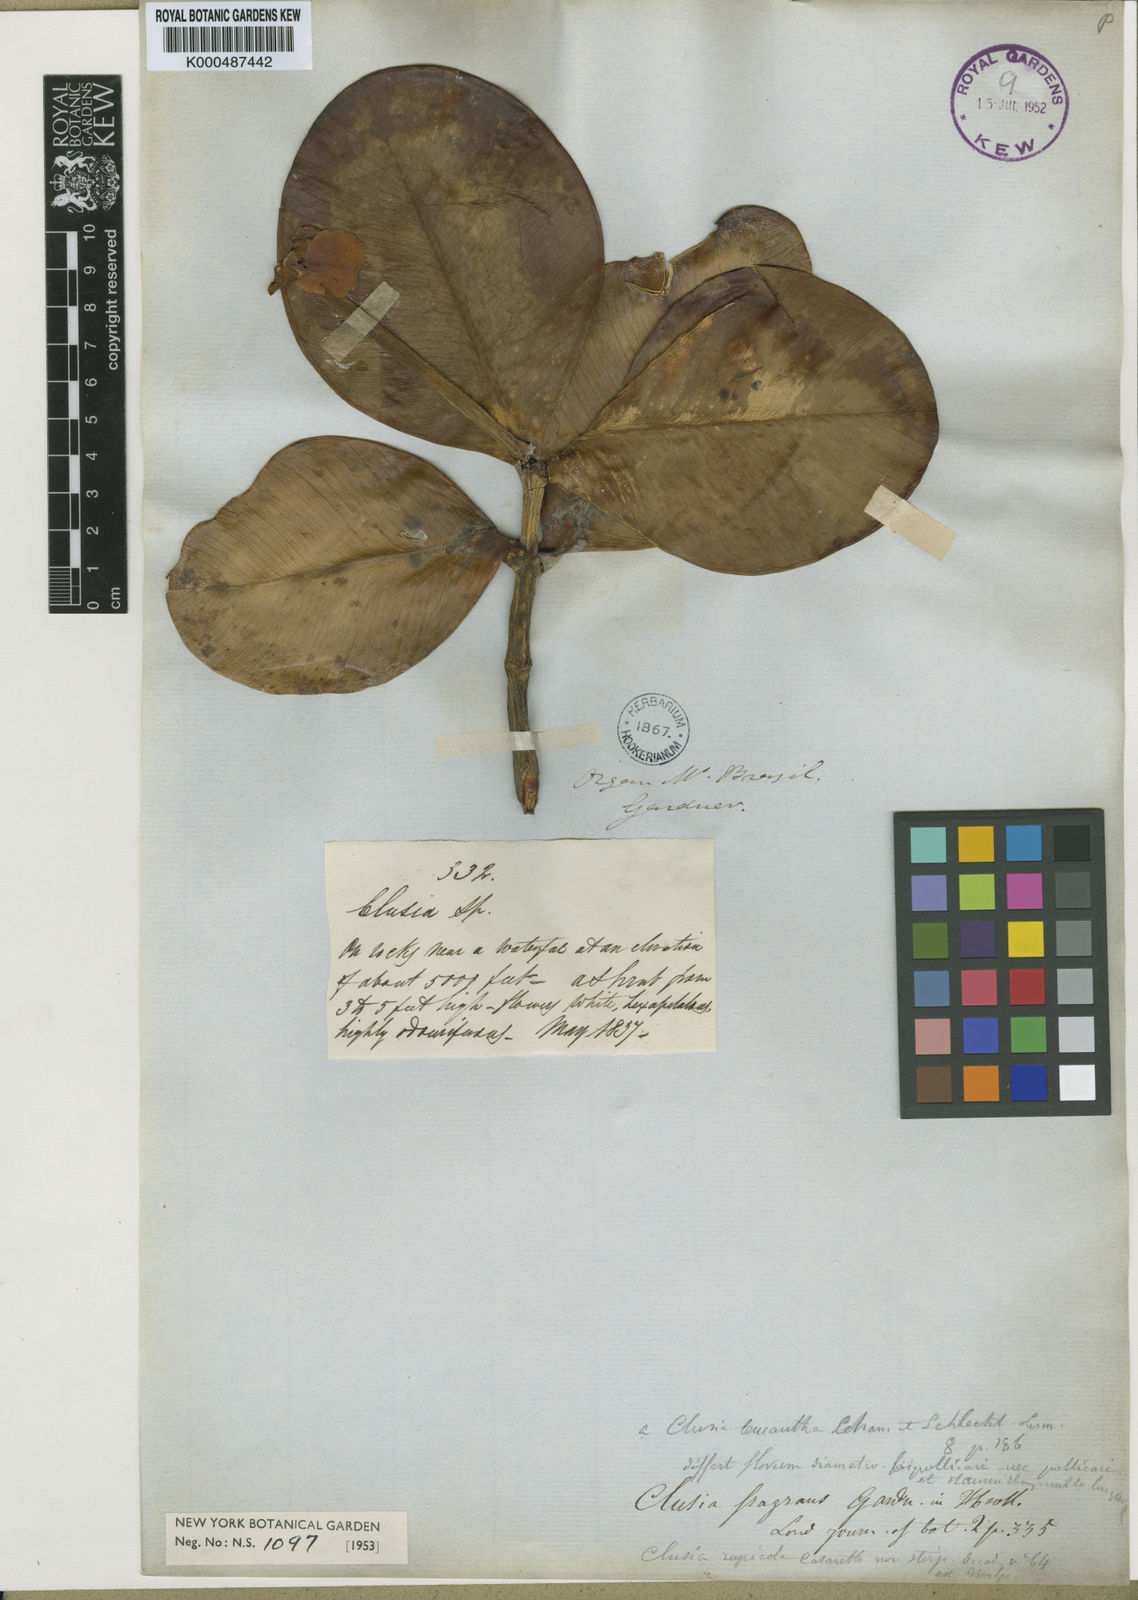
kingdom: Plantae
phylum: Tracheophyta
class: Magnoliopsida
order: Malpighiales
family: Clusiaceae
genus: Clusia
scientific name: Clusia fragrans
